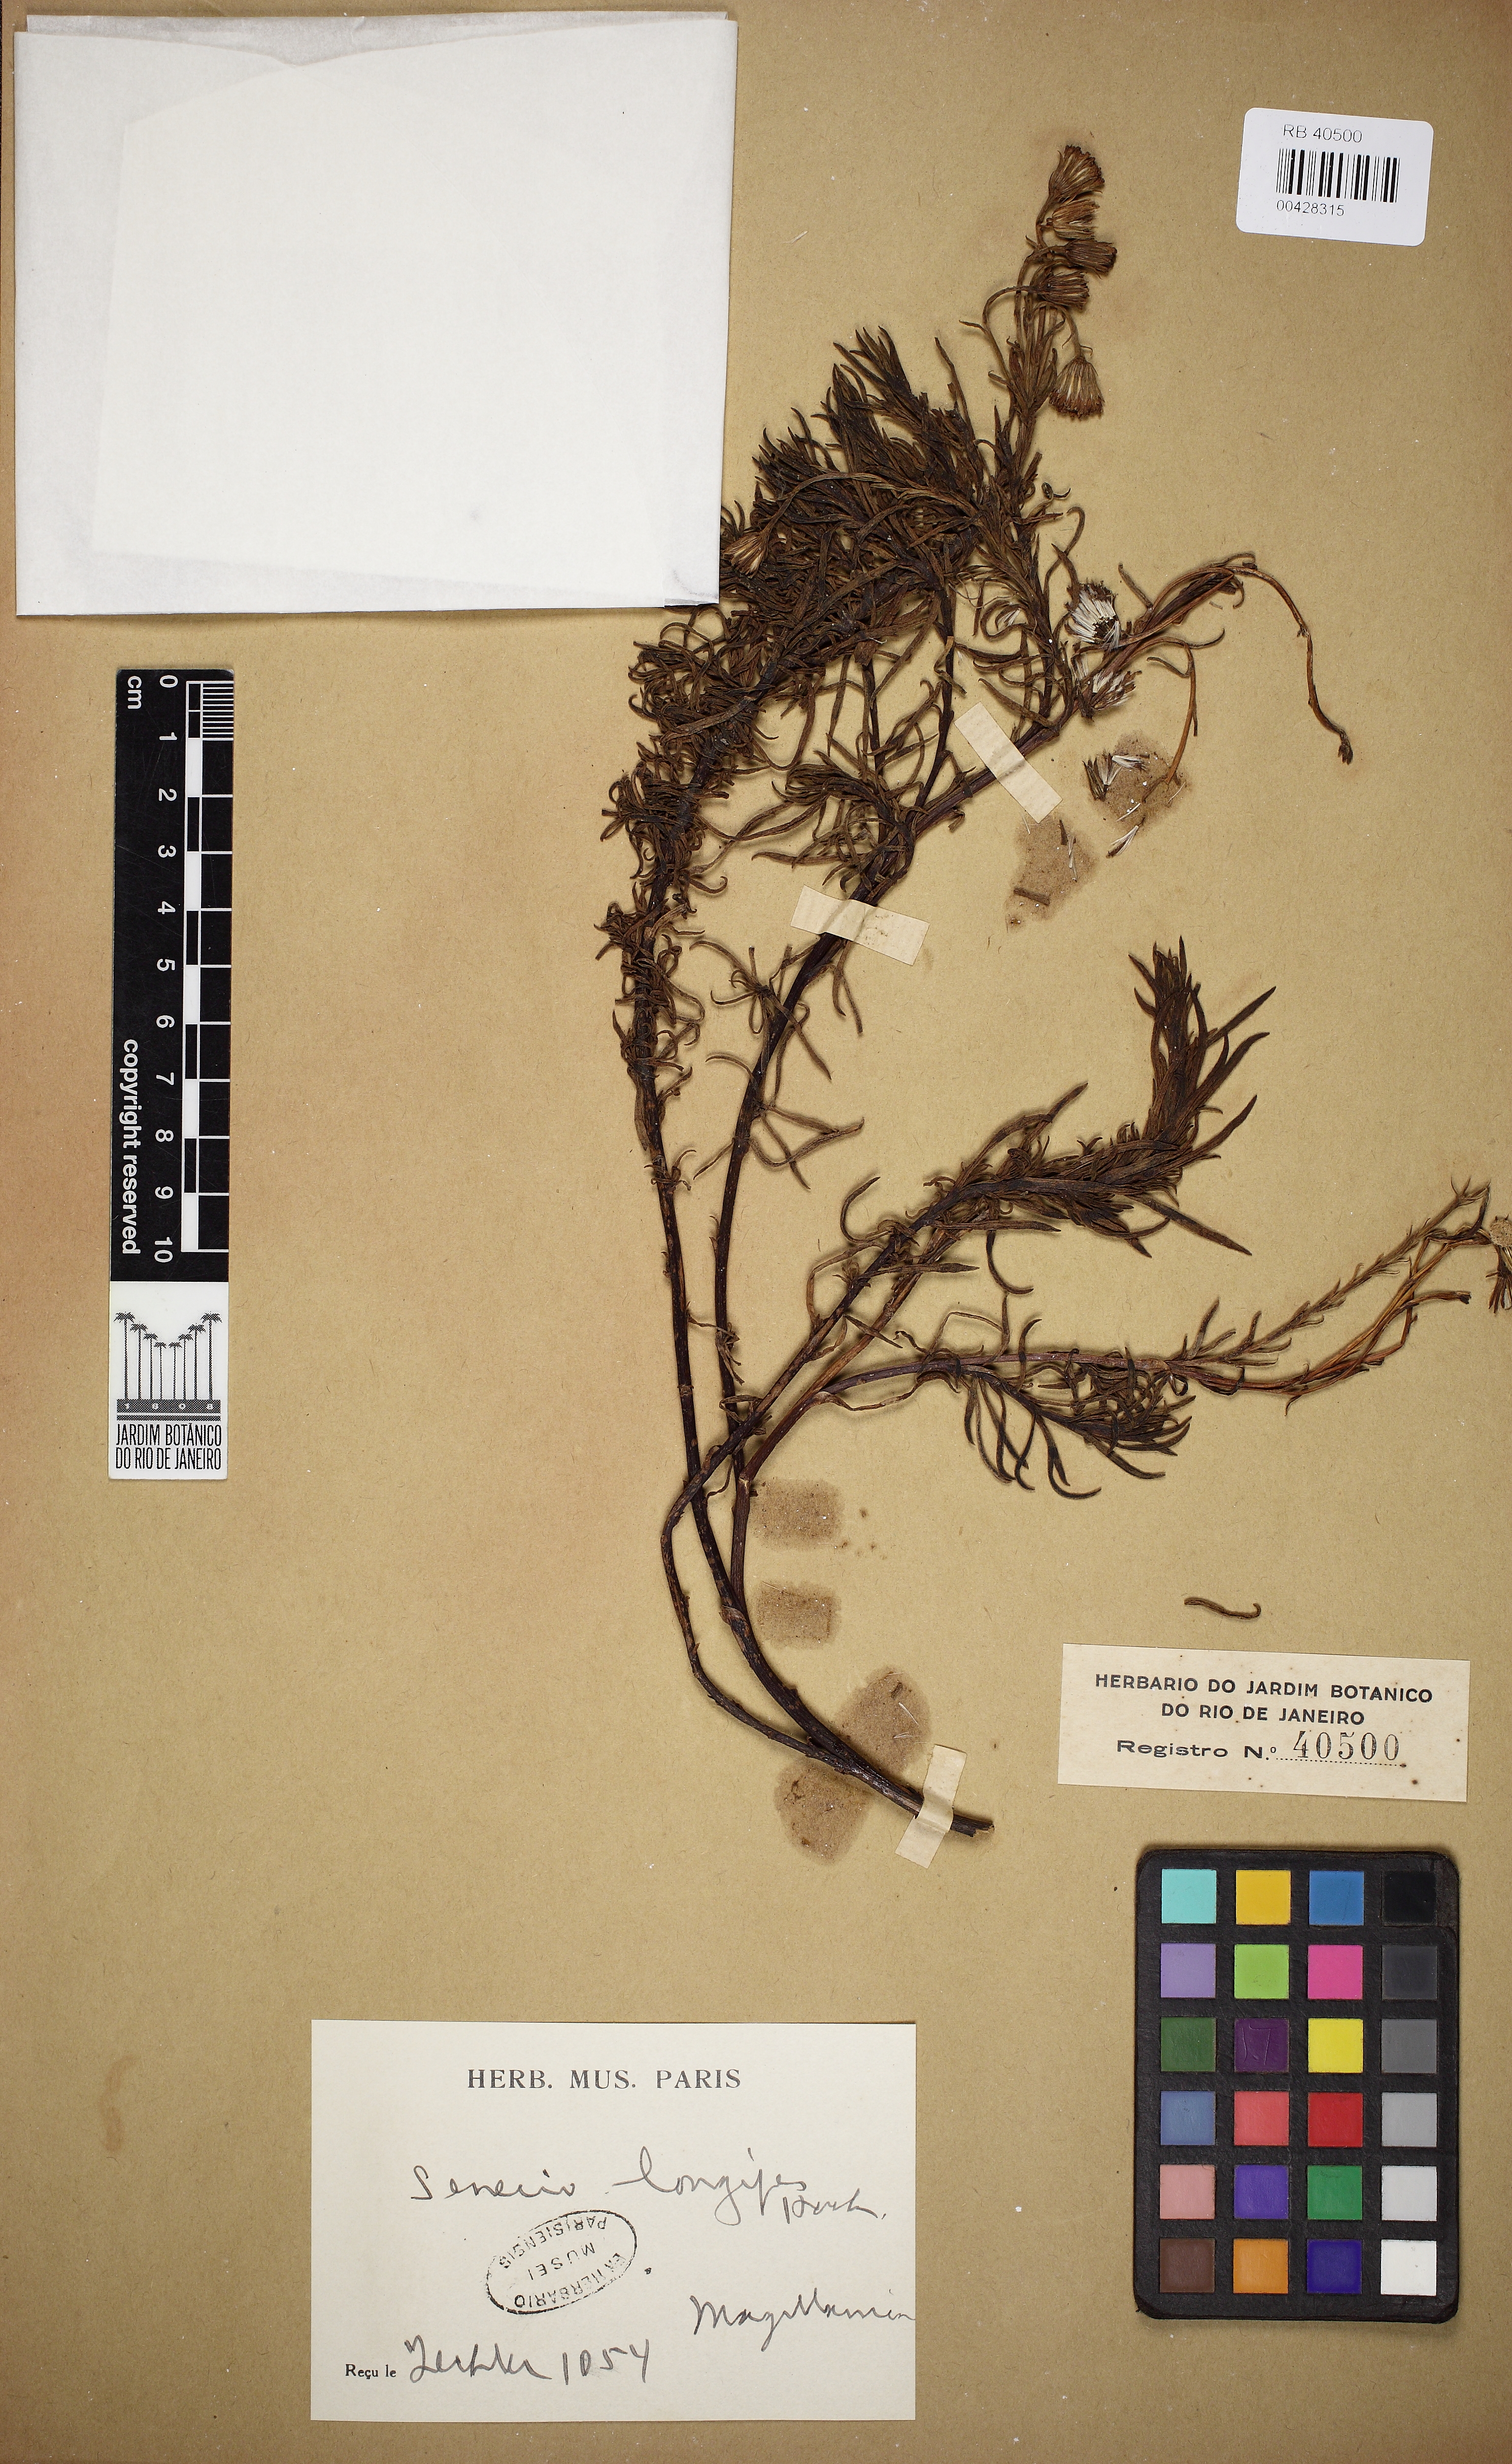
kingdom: Plantae
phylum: Tracheophyta
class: Magnoliopsida
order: Asterales
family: Asteraceae
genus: Kleinia
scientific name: Kleinia grantii
